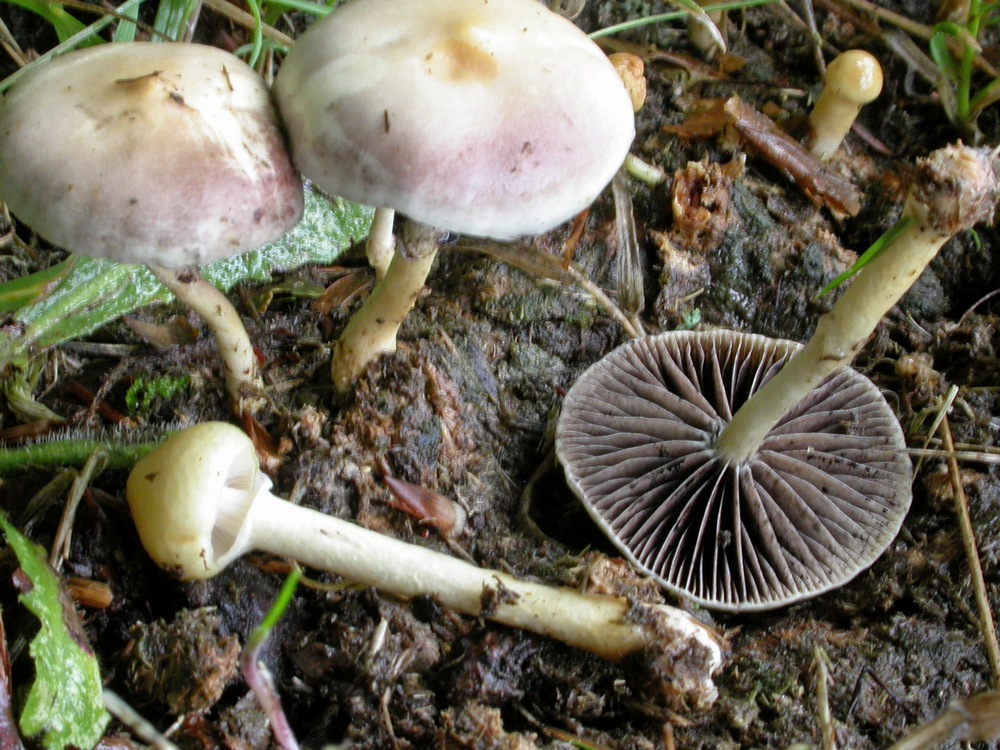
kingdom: Fungi
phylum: Basidiomycota
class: Agaricomycetes
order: Agaricales
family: Strophariaceae
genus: Protostropharia
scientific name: Protostropharia semiglobata
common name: halvkugleformet bredblad
